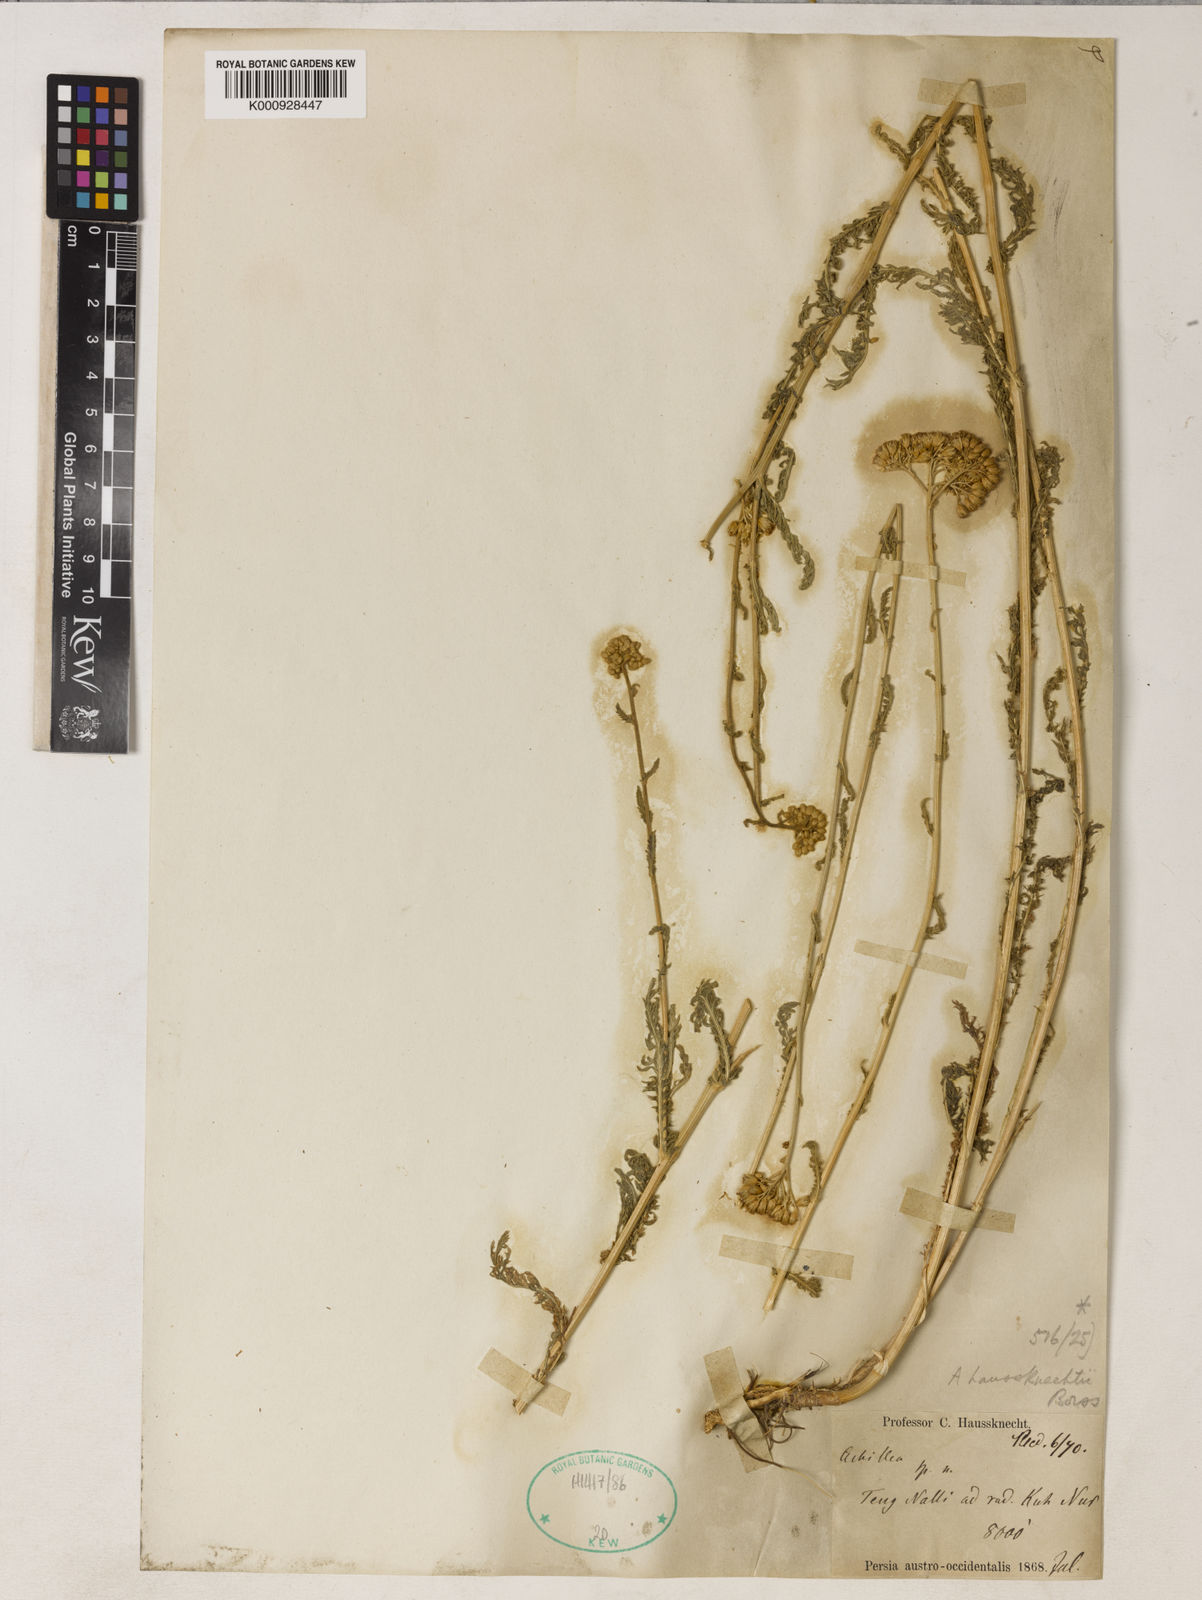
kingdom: Plantae
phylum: Tracheophyta
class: Magnoliopsida
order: Asterales
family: Asteraceae
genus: Achillea
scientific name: Achillea kellalensis
